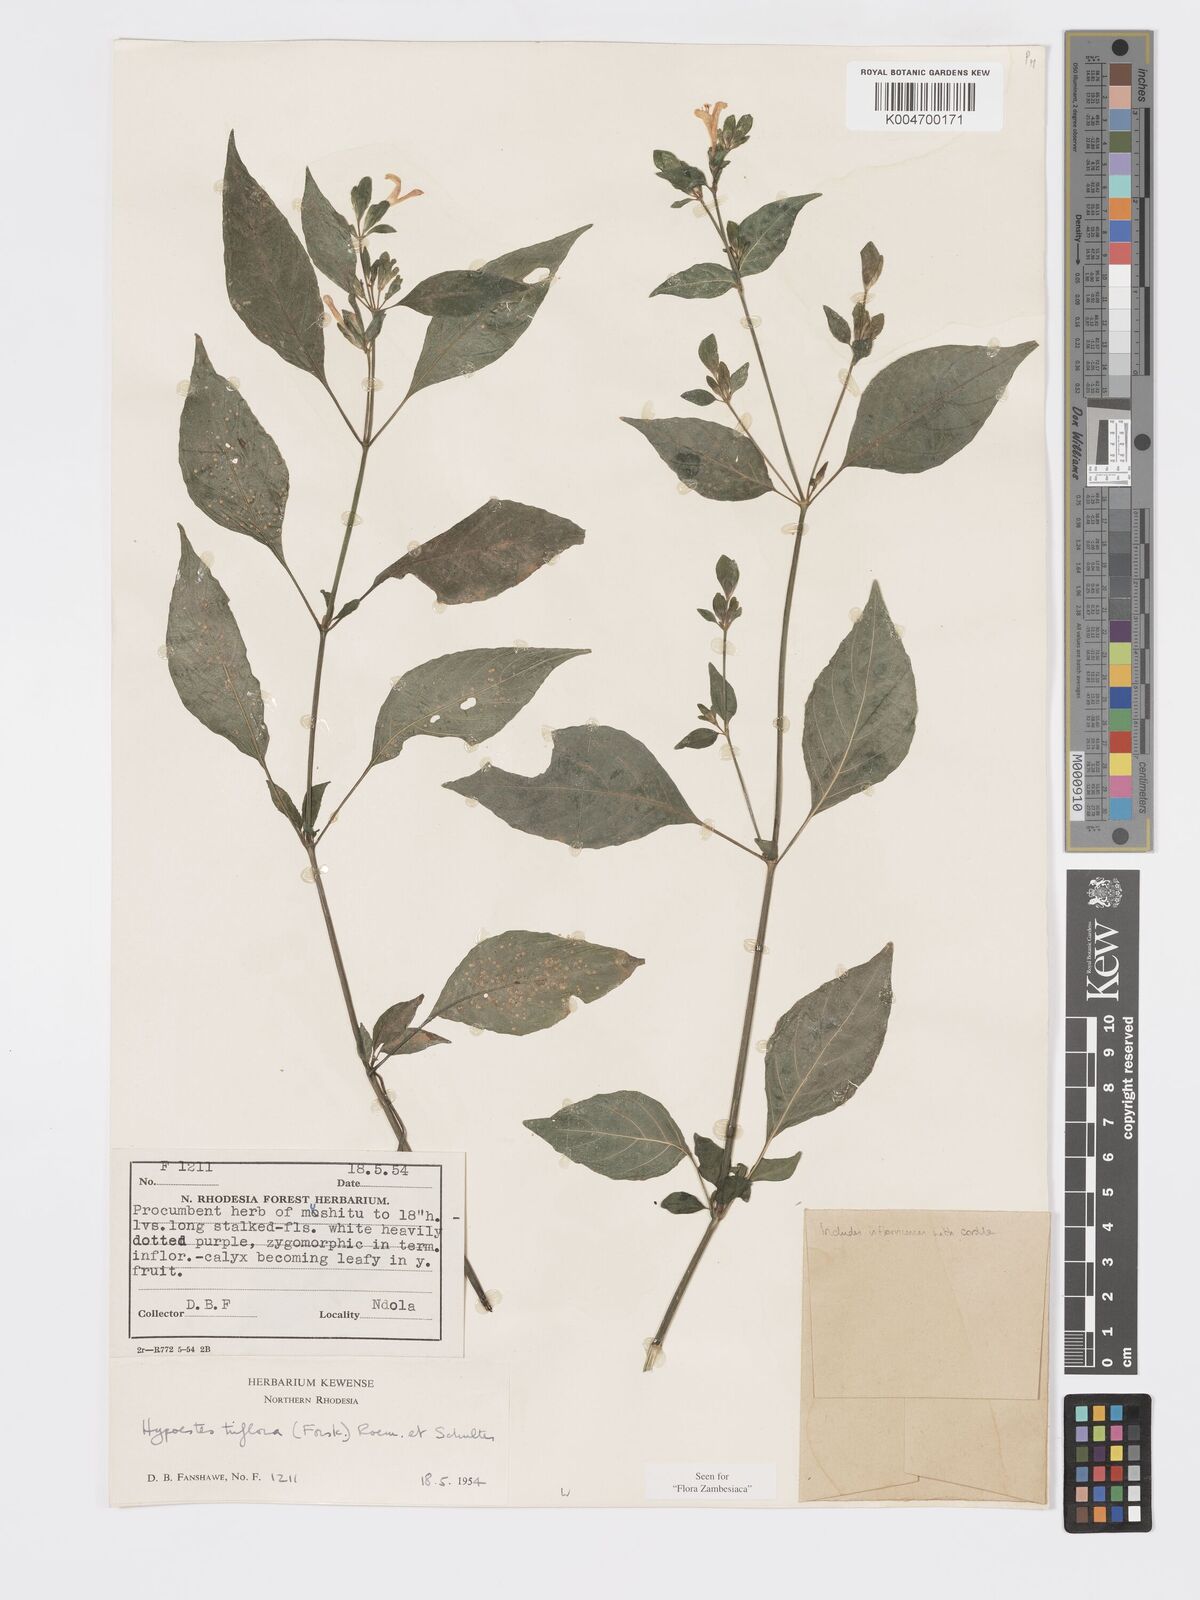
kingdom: Plantae
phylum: Tracheophyta
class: Magnoliopsida
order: Lamiales
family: Acanthaceae
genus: Hypoestes
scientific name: Hypoestes triflora
